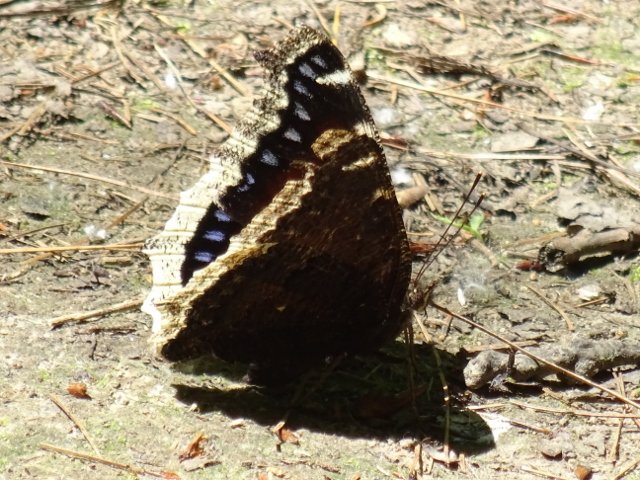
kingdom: Animalia
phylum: Arthropoda
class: Insecta
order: Lepidoptera
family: Nymphalidae
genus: Nymphalis
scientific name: Nymphalis antiopa
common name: Mourning Cloak
